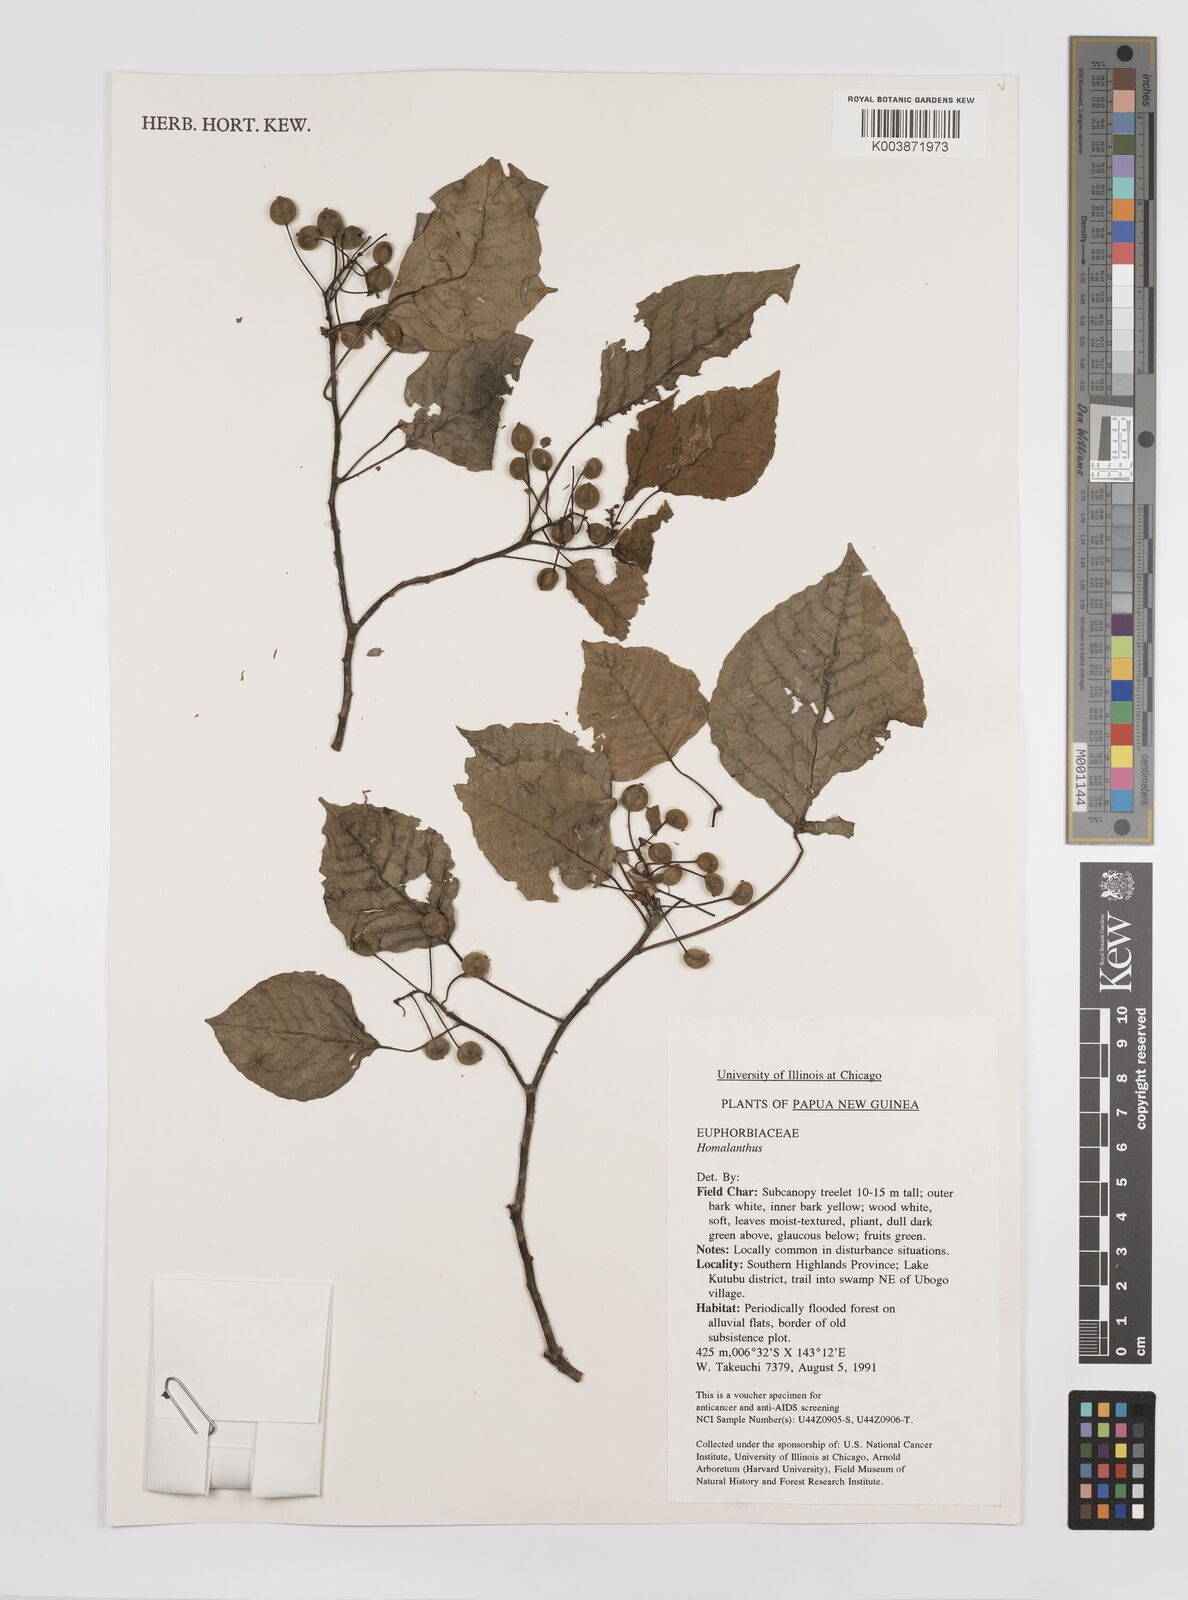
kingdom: Plantae
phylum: Tracheophyta
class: Magnoliopsida
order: Malpighiales
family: Euphorbiaceae
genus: Homalanthus
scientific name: Homalanthus
